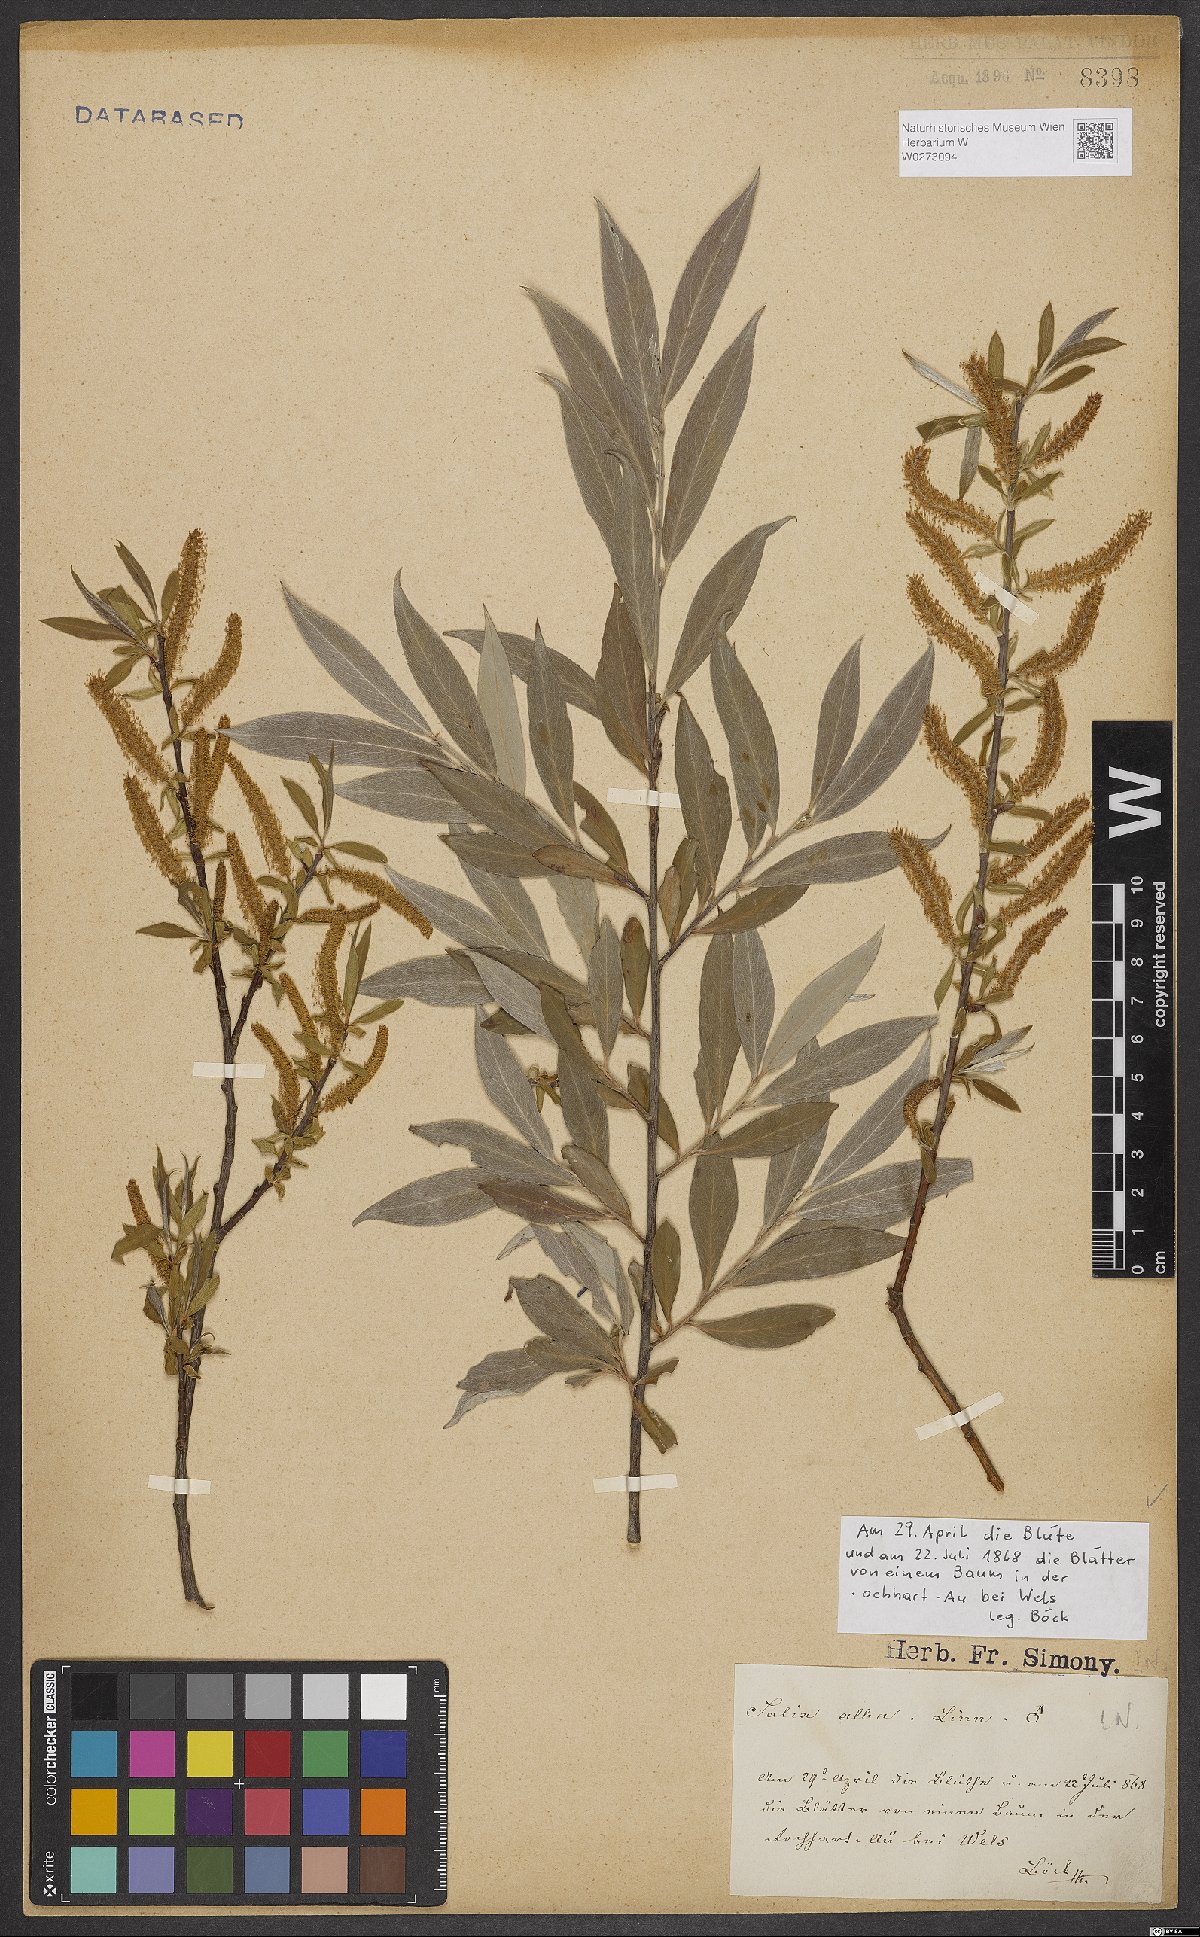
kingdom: Plantae
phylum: Tracheophyta
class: Magnoliopsida
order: Malpighiales
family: Salicaceae
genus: Salix
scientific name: Salix alba
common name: White willow
